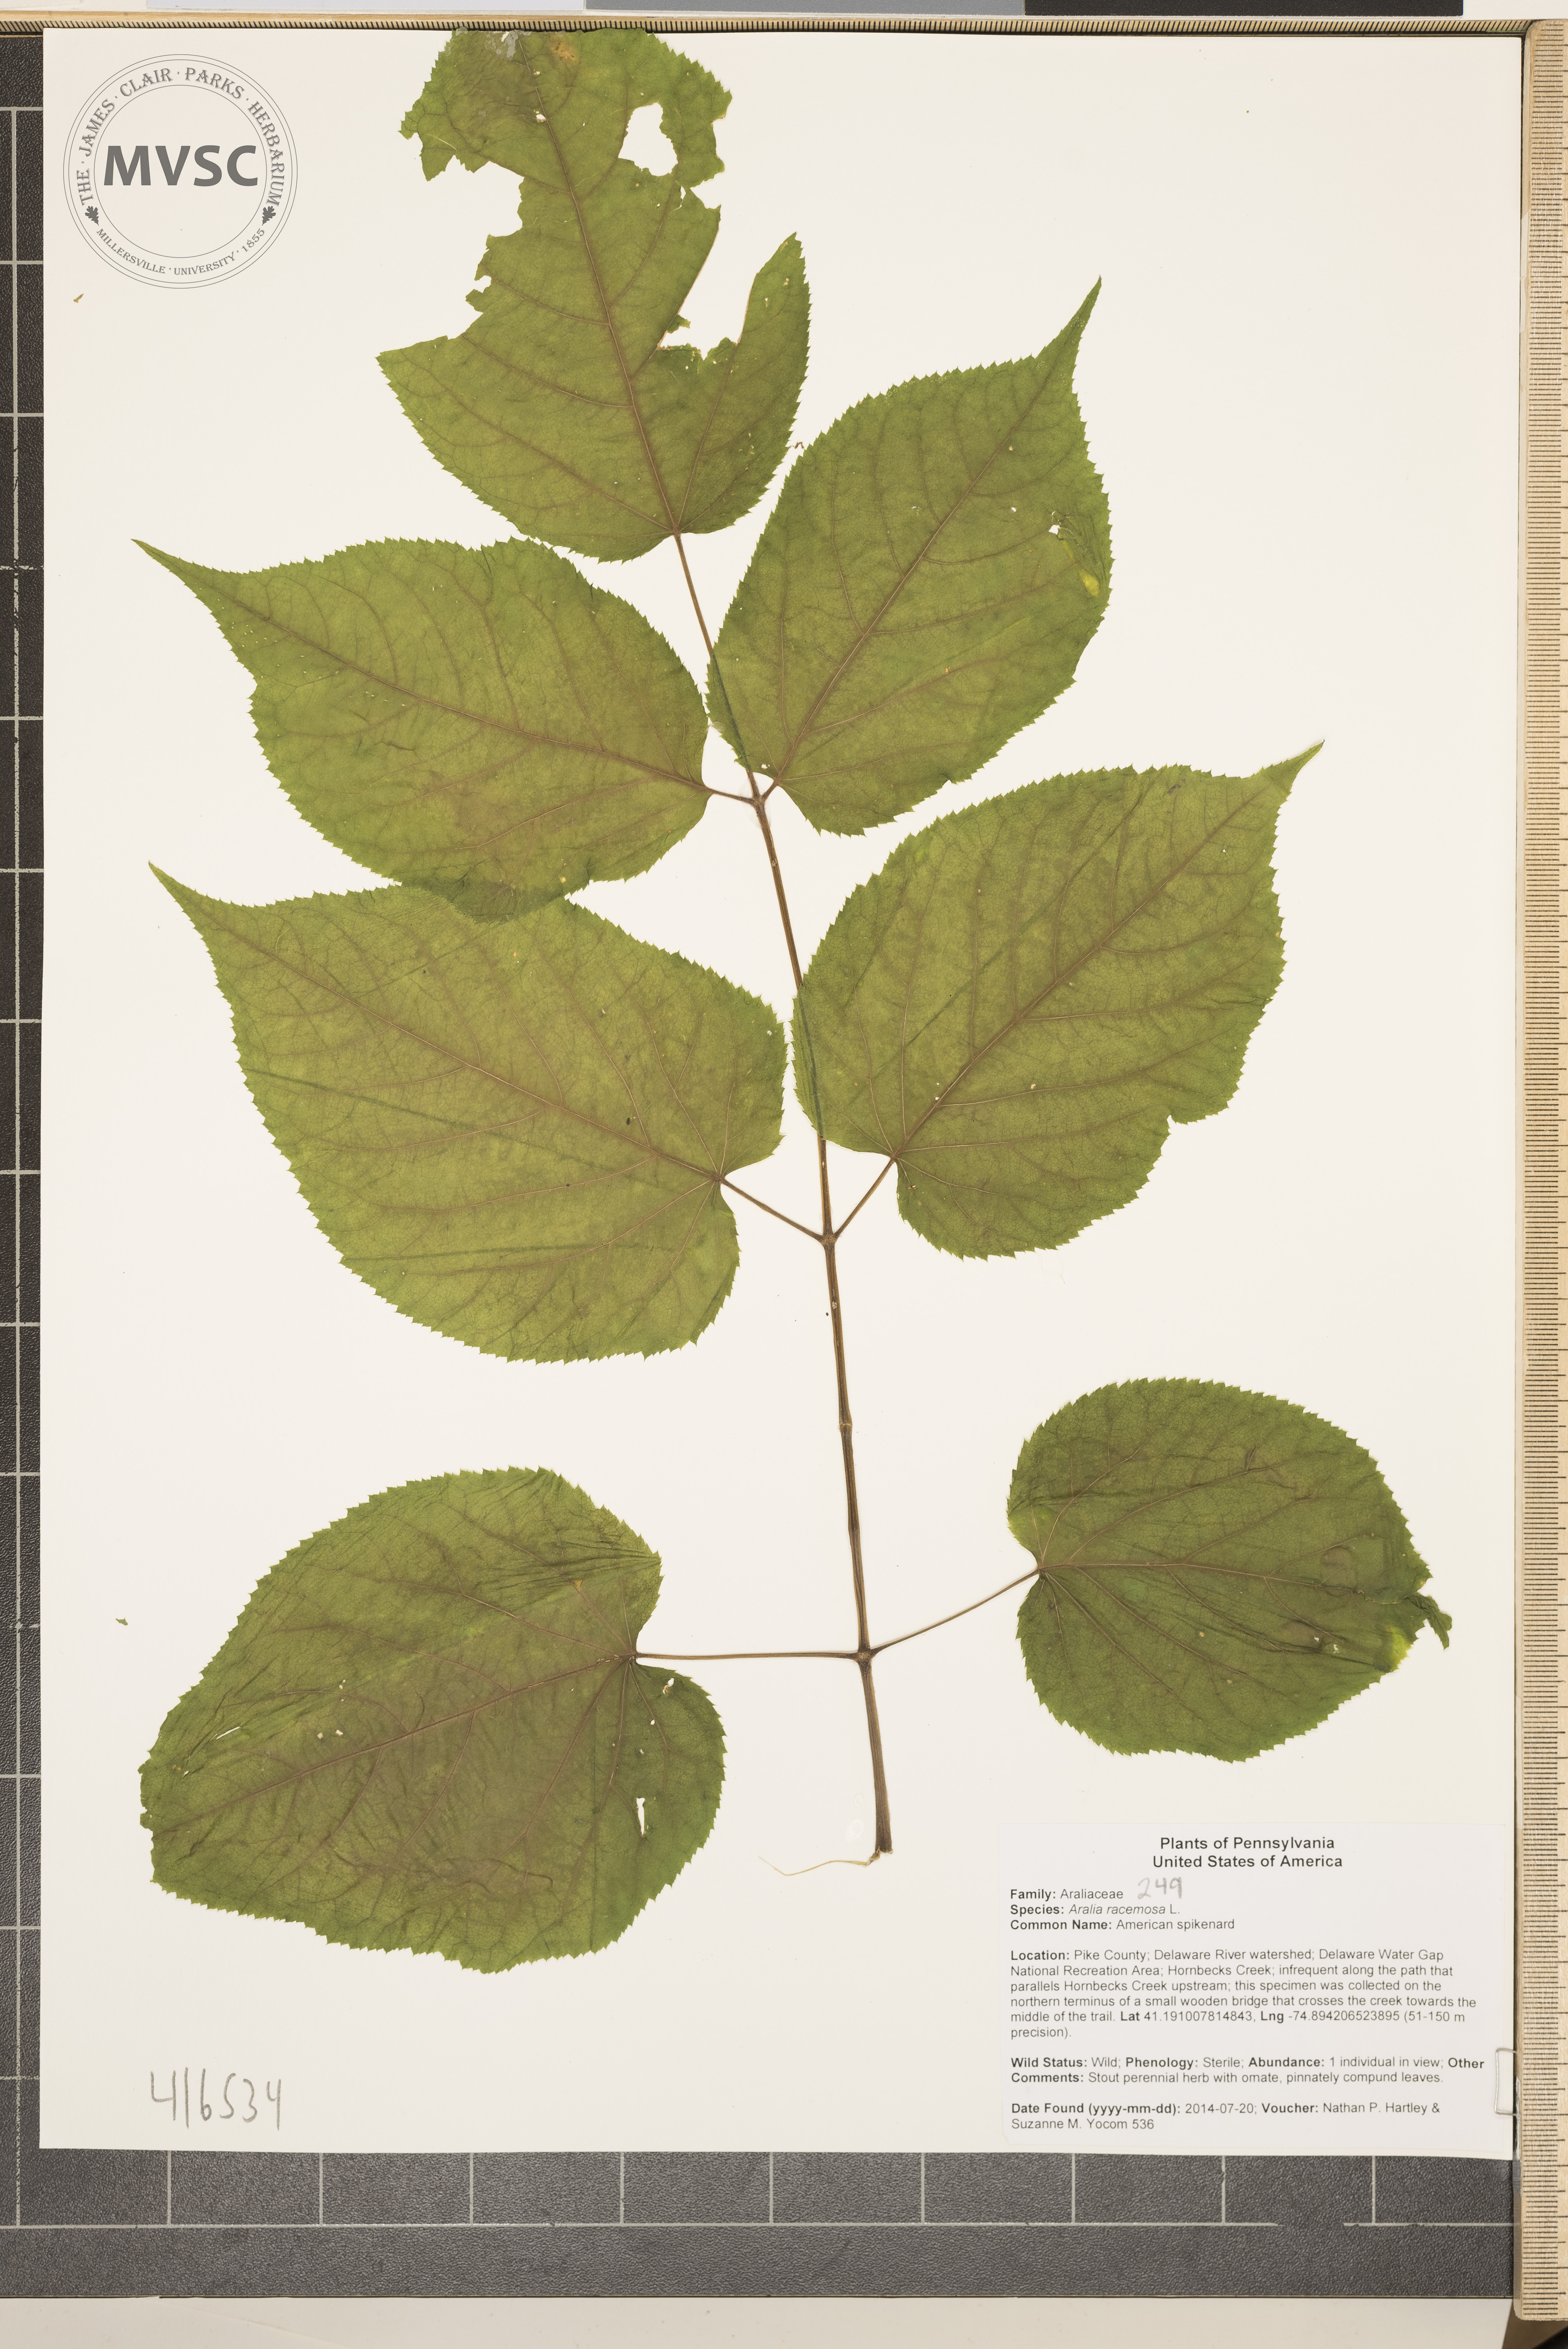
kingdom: Plantae
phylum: Tracheophyta
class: Magnoliopsida
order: Apiales
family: Araliaceae
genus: Aralia
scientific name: Aralia racemosa
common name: American spikenard
